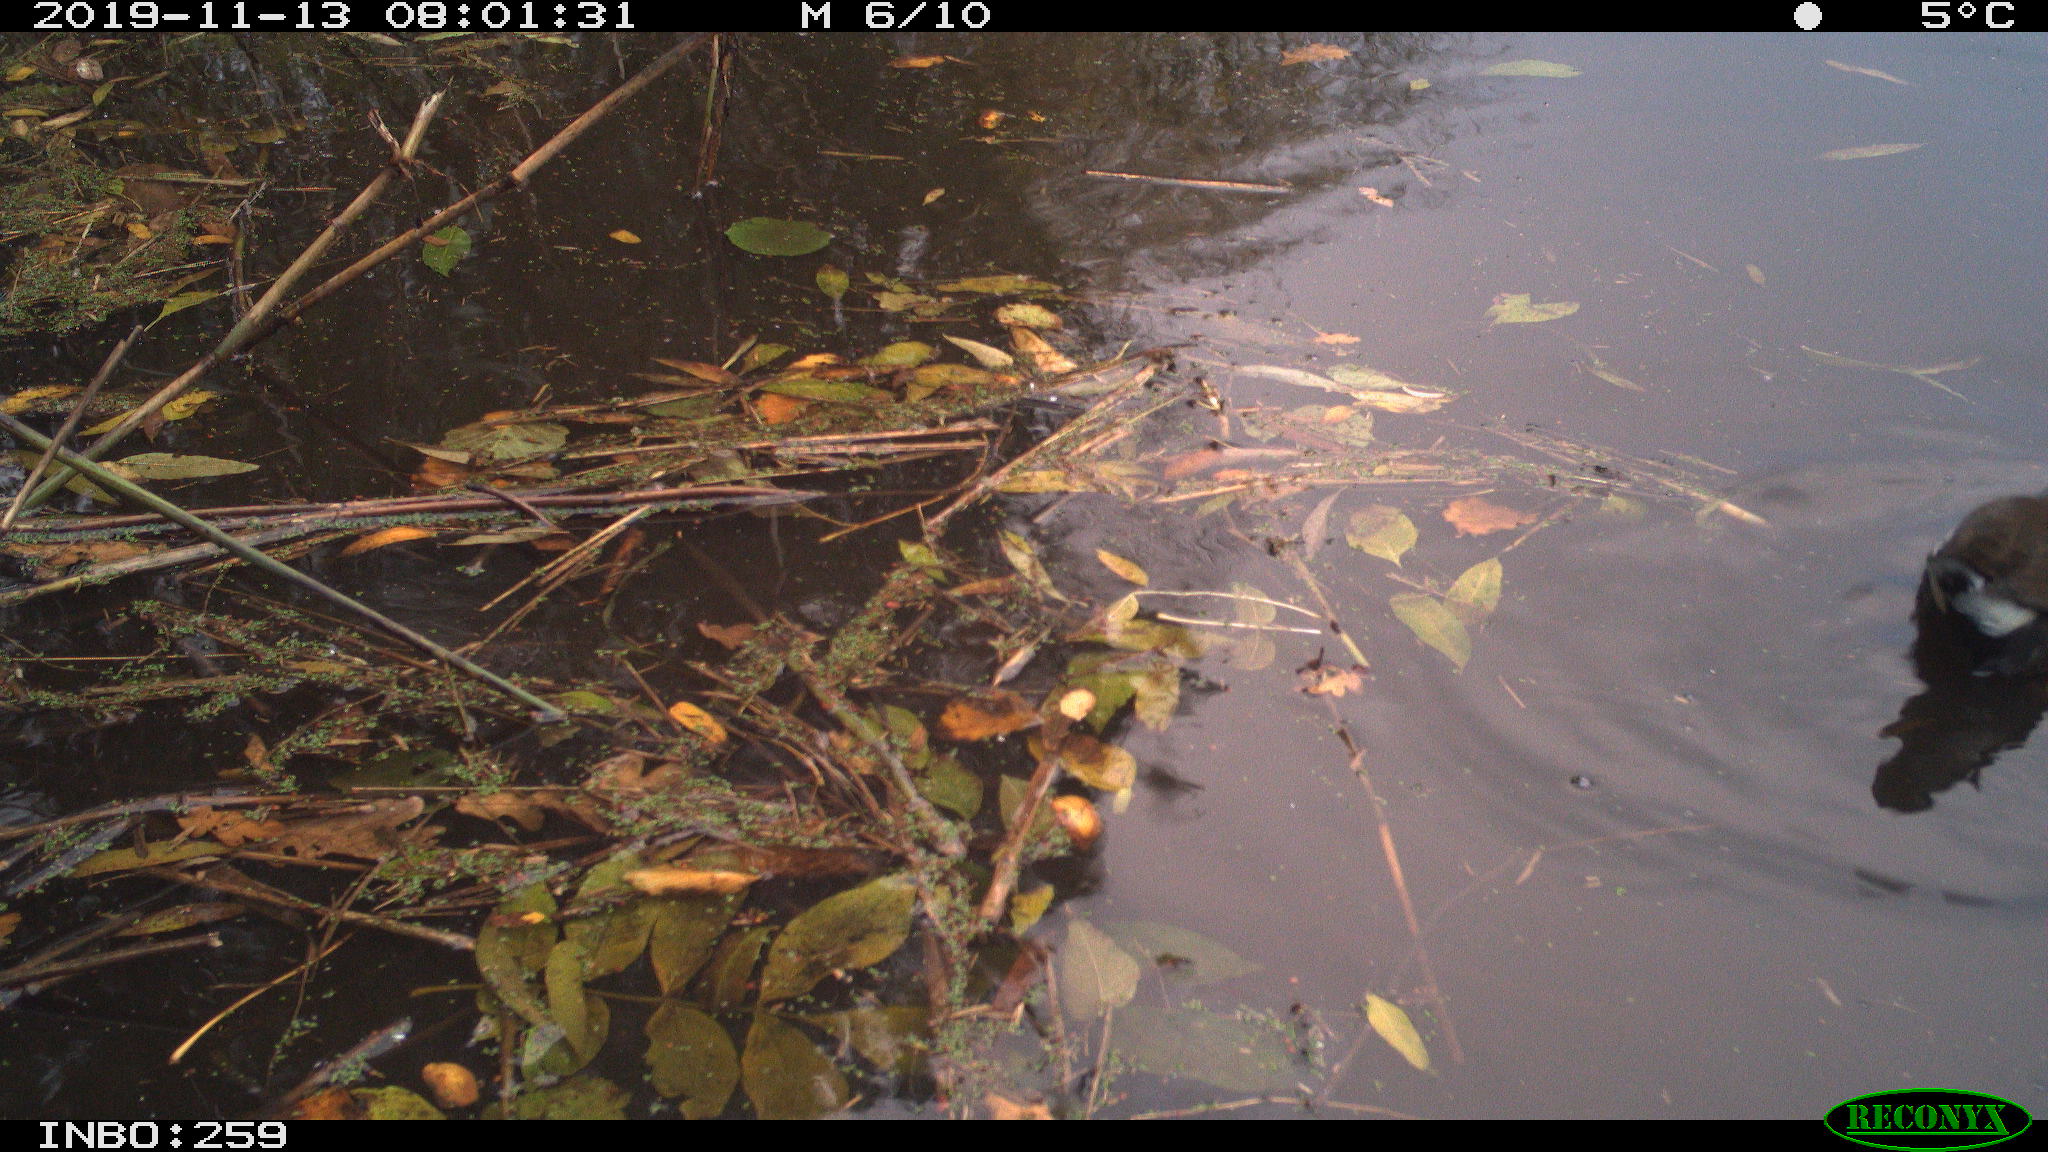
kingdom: Animalia
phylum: Chordata
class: Aves
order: Gruiformes
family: Rallidae
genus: Gallinula
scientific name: Gallinula chloropus
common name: Common moorhen
